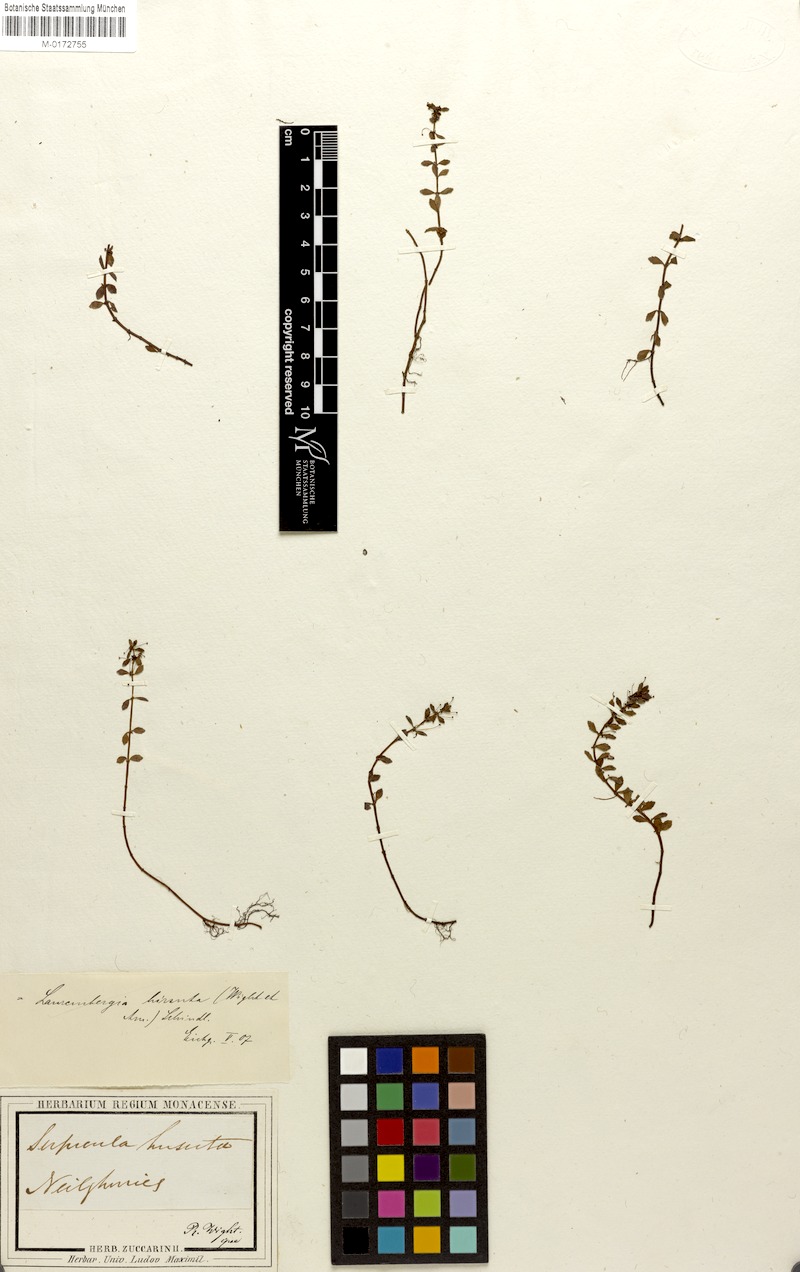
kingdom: Plantae
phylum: Tracheophyta
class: Magnoliopsida
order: Saxifragales
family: Haloragaceae
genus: Laurembergia
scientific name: Laurembergia coccinea
